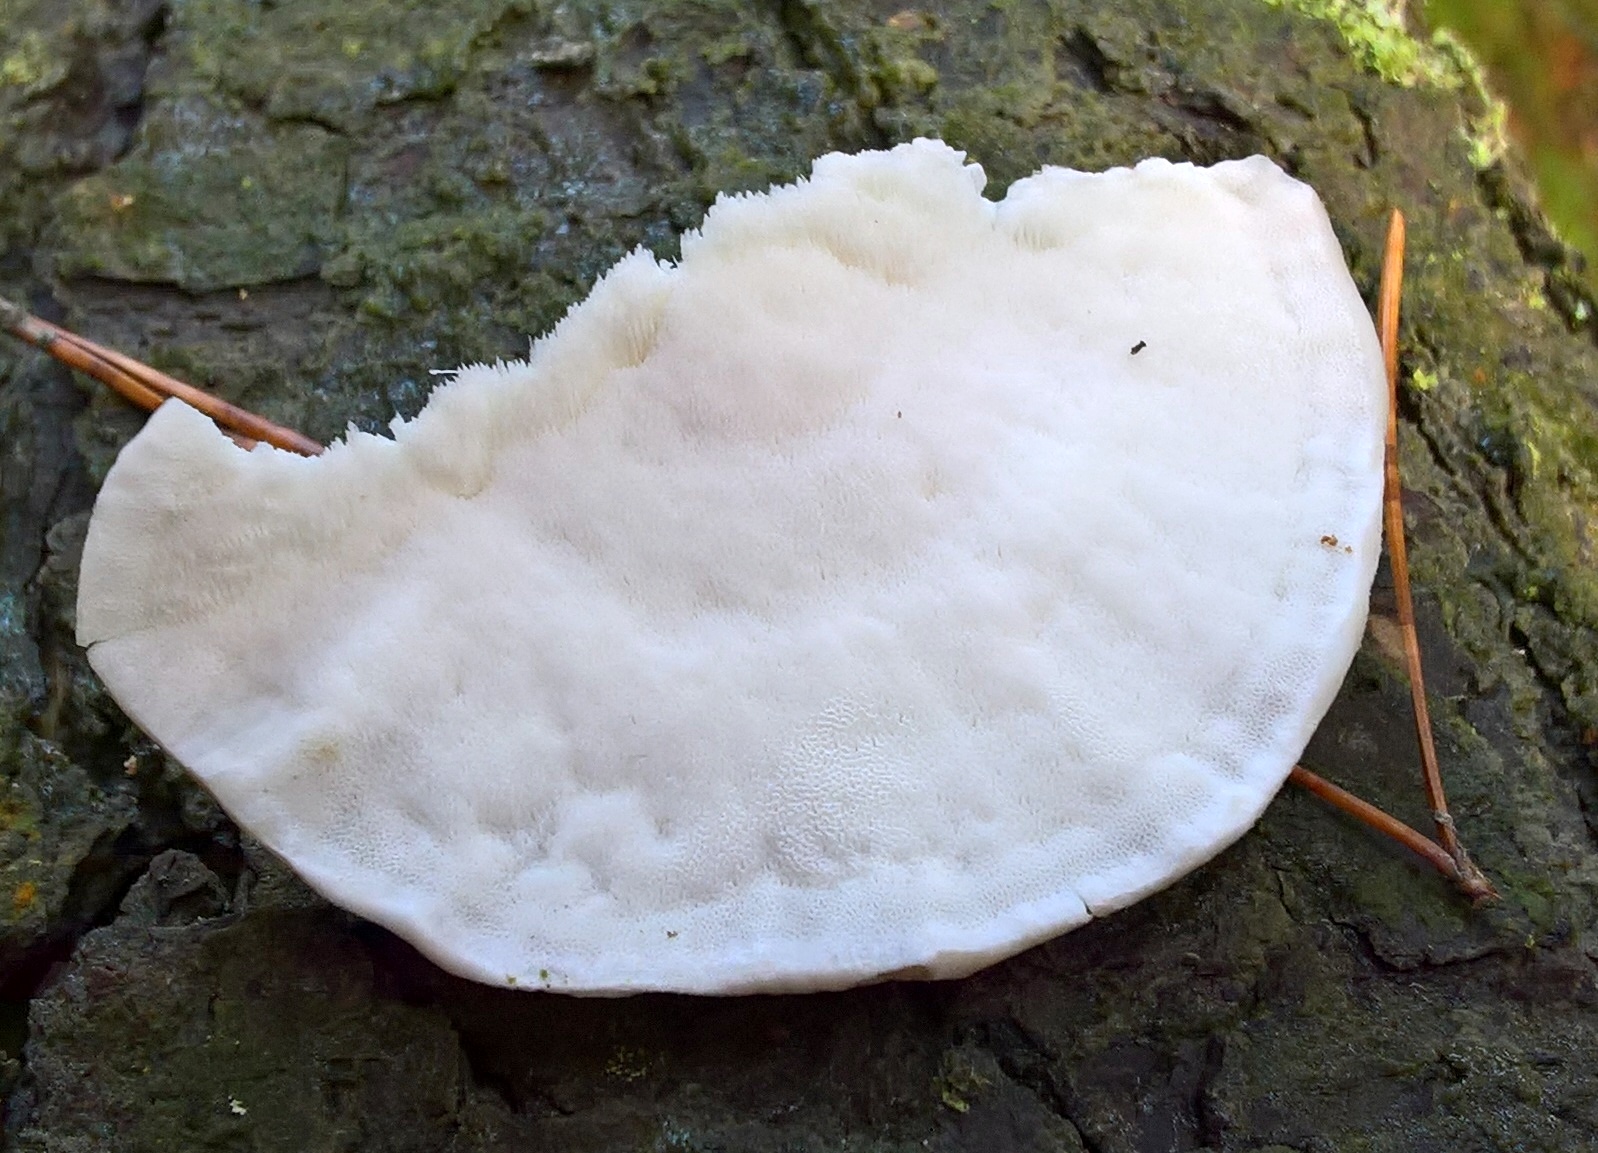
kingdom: Fungi
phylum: Basidiomycota
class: Agaricomycetes
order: Polyporales
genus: Amaropostia
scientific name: Amaropostia stiptica
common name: bitter kødporesvamp
